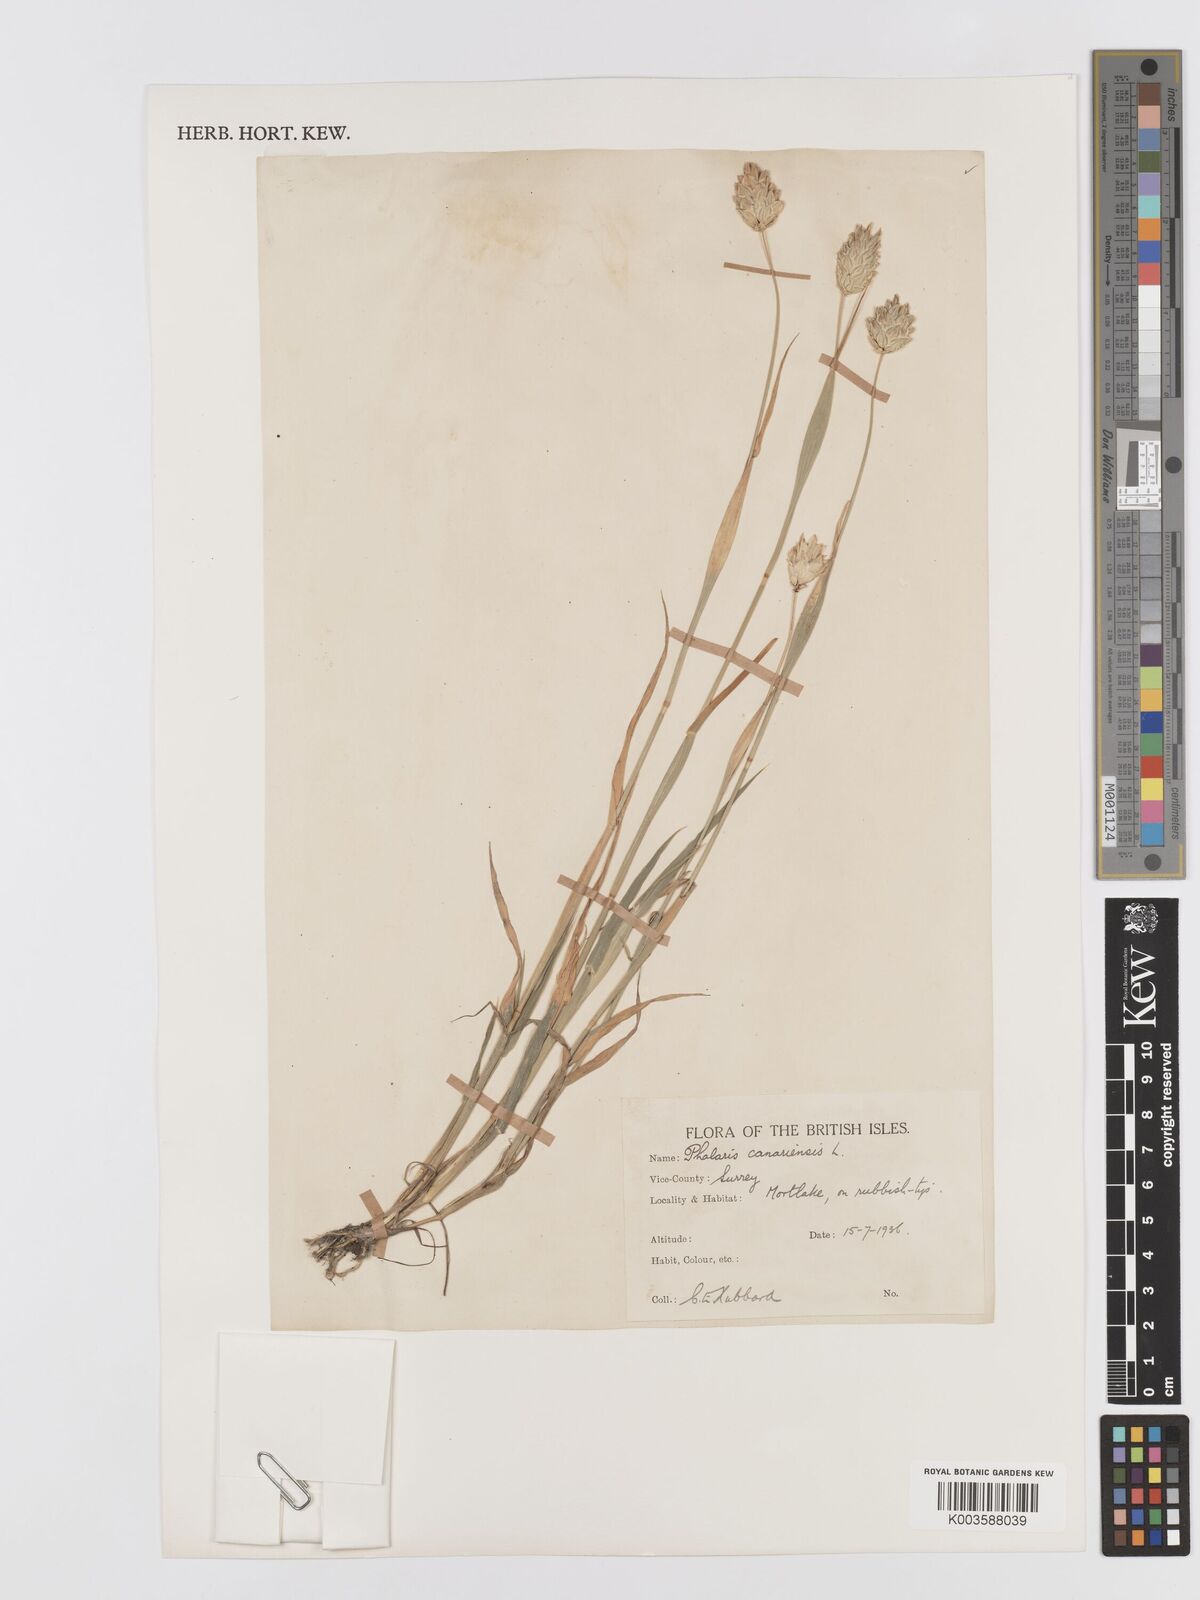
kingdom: Plantae
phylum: Tracheophyta
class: Liliopsida
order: Poales
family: Poaceae
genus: Phalaris
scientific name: Phalaris canariensis
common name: Annual canarygrass
